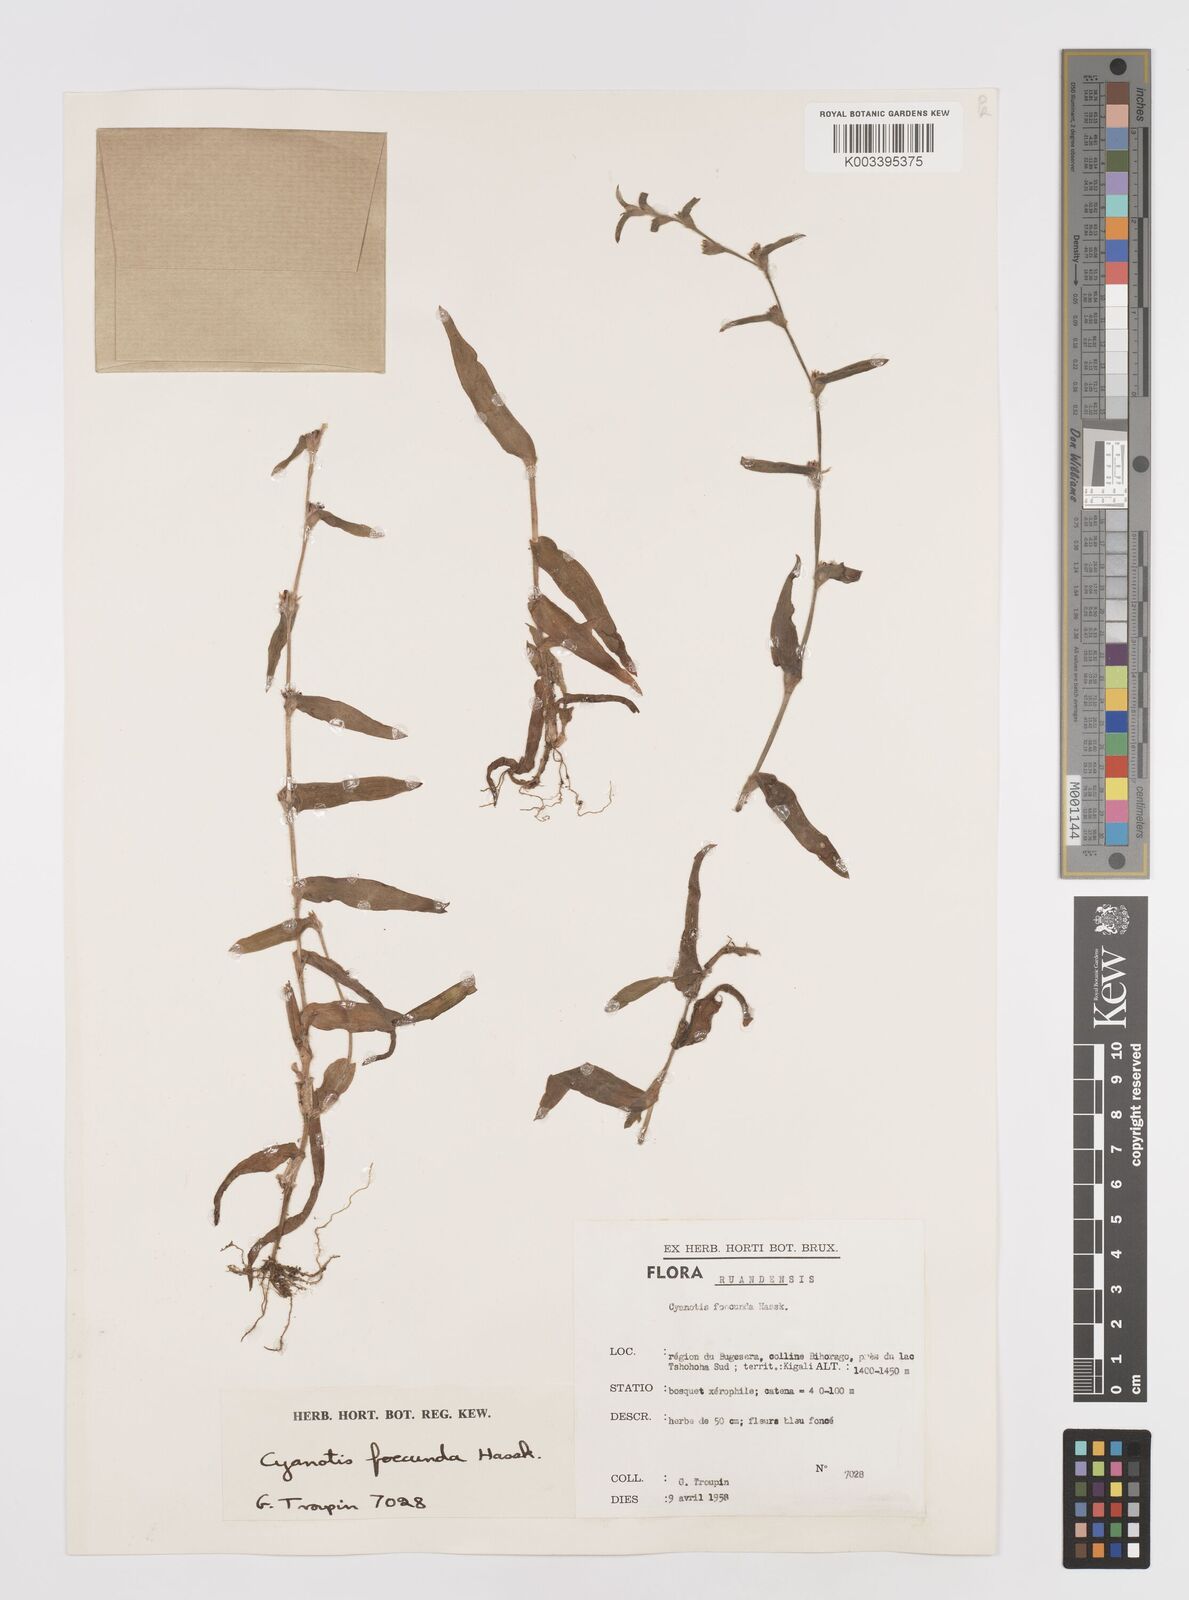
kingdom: Plantae
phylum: Tracheophyta
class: Liliopsida
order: Commelinales
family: Commelinaceae
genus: Cyanotis
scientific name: Cyanotis foecunda
